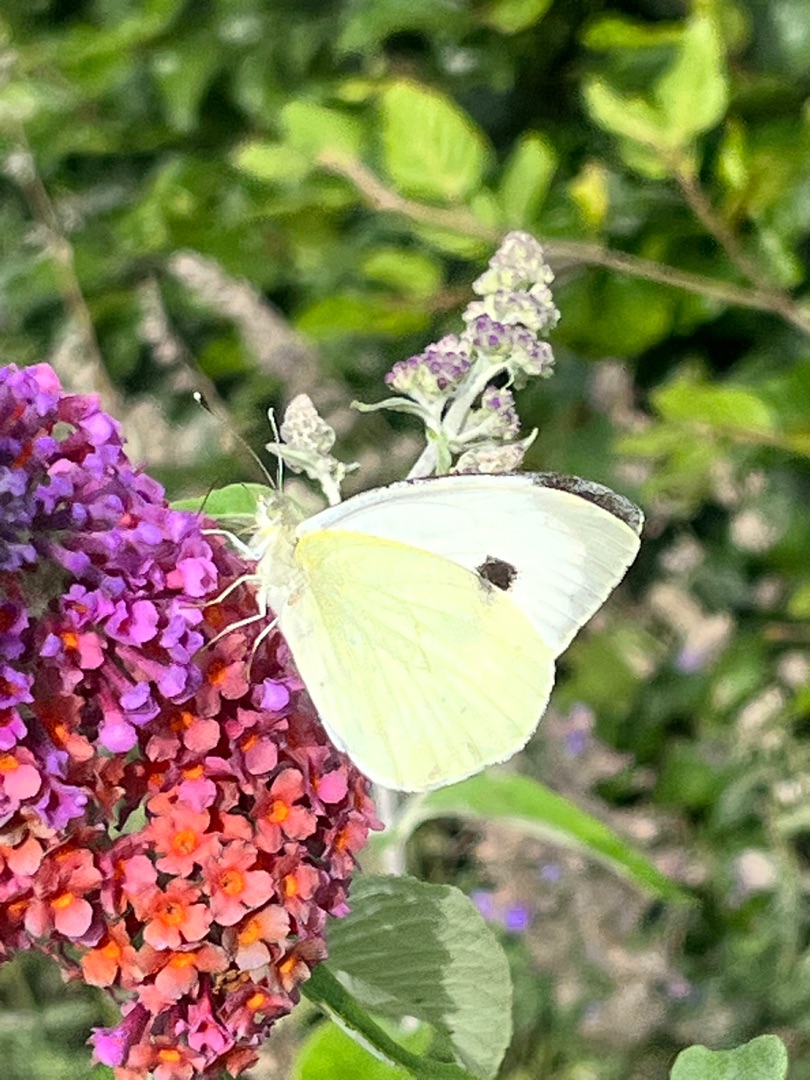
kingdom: Animalia
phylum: Arthropoda
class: Insecta
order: Lepidoptera
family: Pieridae
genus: Pieris
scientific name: Pieris brassicae
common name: Stor kålsommerfugl
